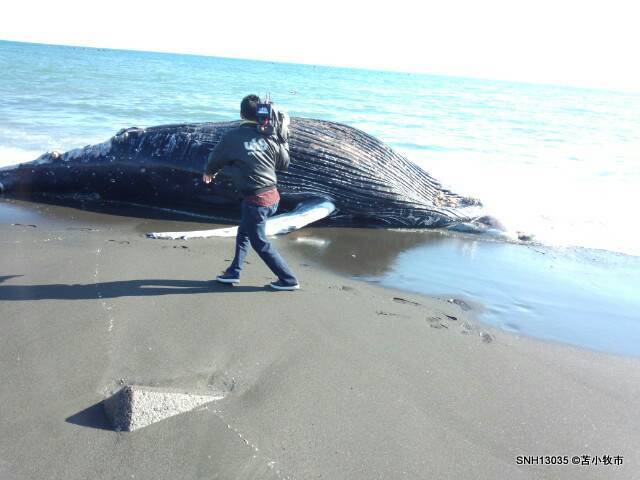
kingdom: Animalia
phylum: Chordata
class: Mammalia
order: Cetacea
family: Balaenopteridae
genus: Megaptera
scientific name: Megaptera novaeangliae
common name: Humpback whale
